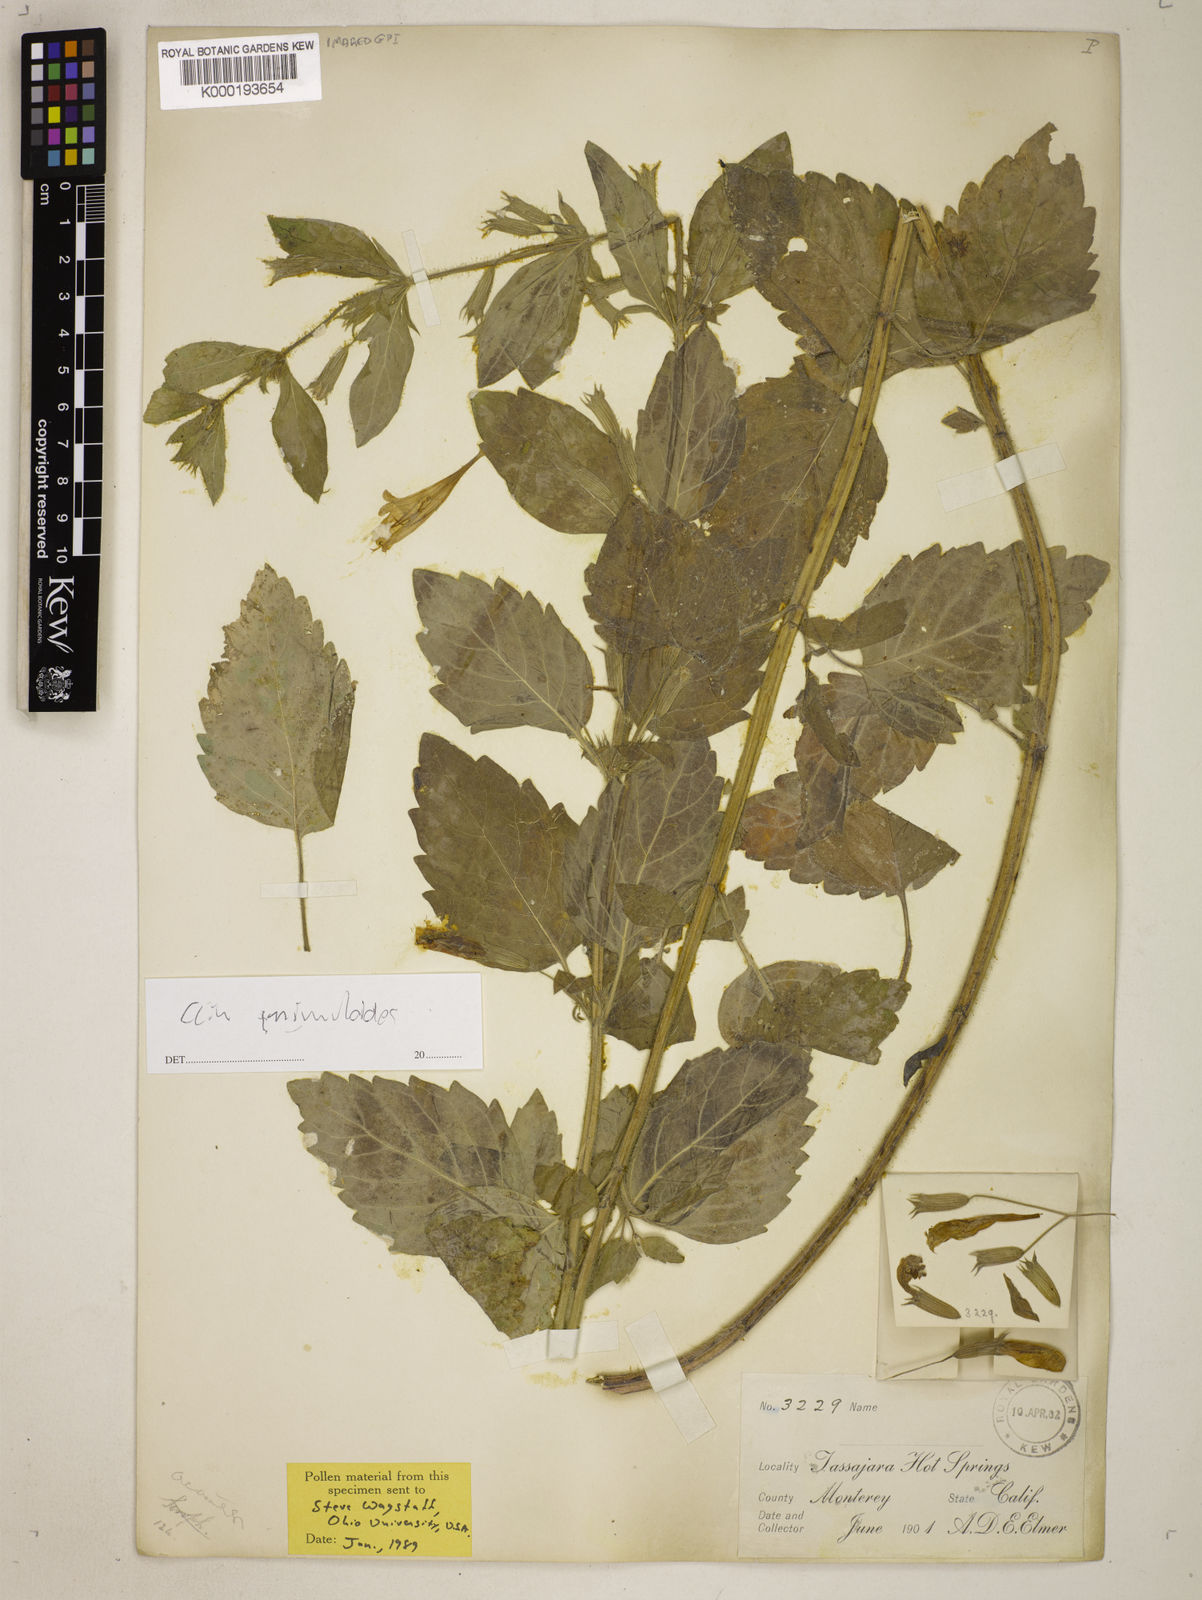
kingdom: Plantae
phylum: Tracheophyta
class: Magnoliopsida
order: Lamiales
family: Lamiaceae
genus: Clinopodium
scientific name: Clinopodium mimuloides
